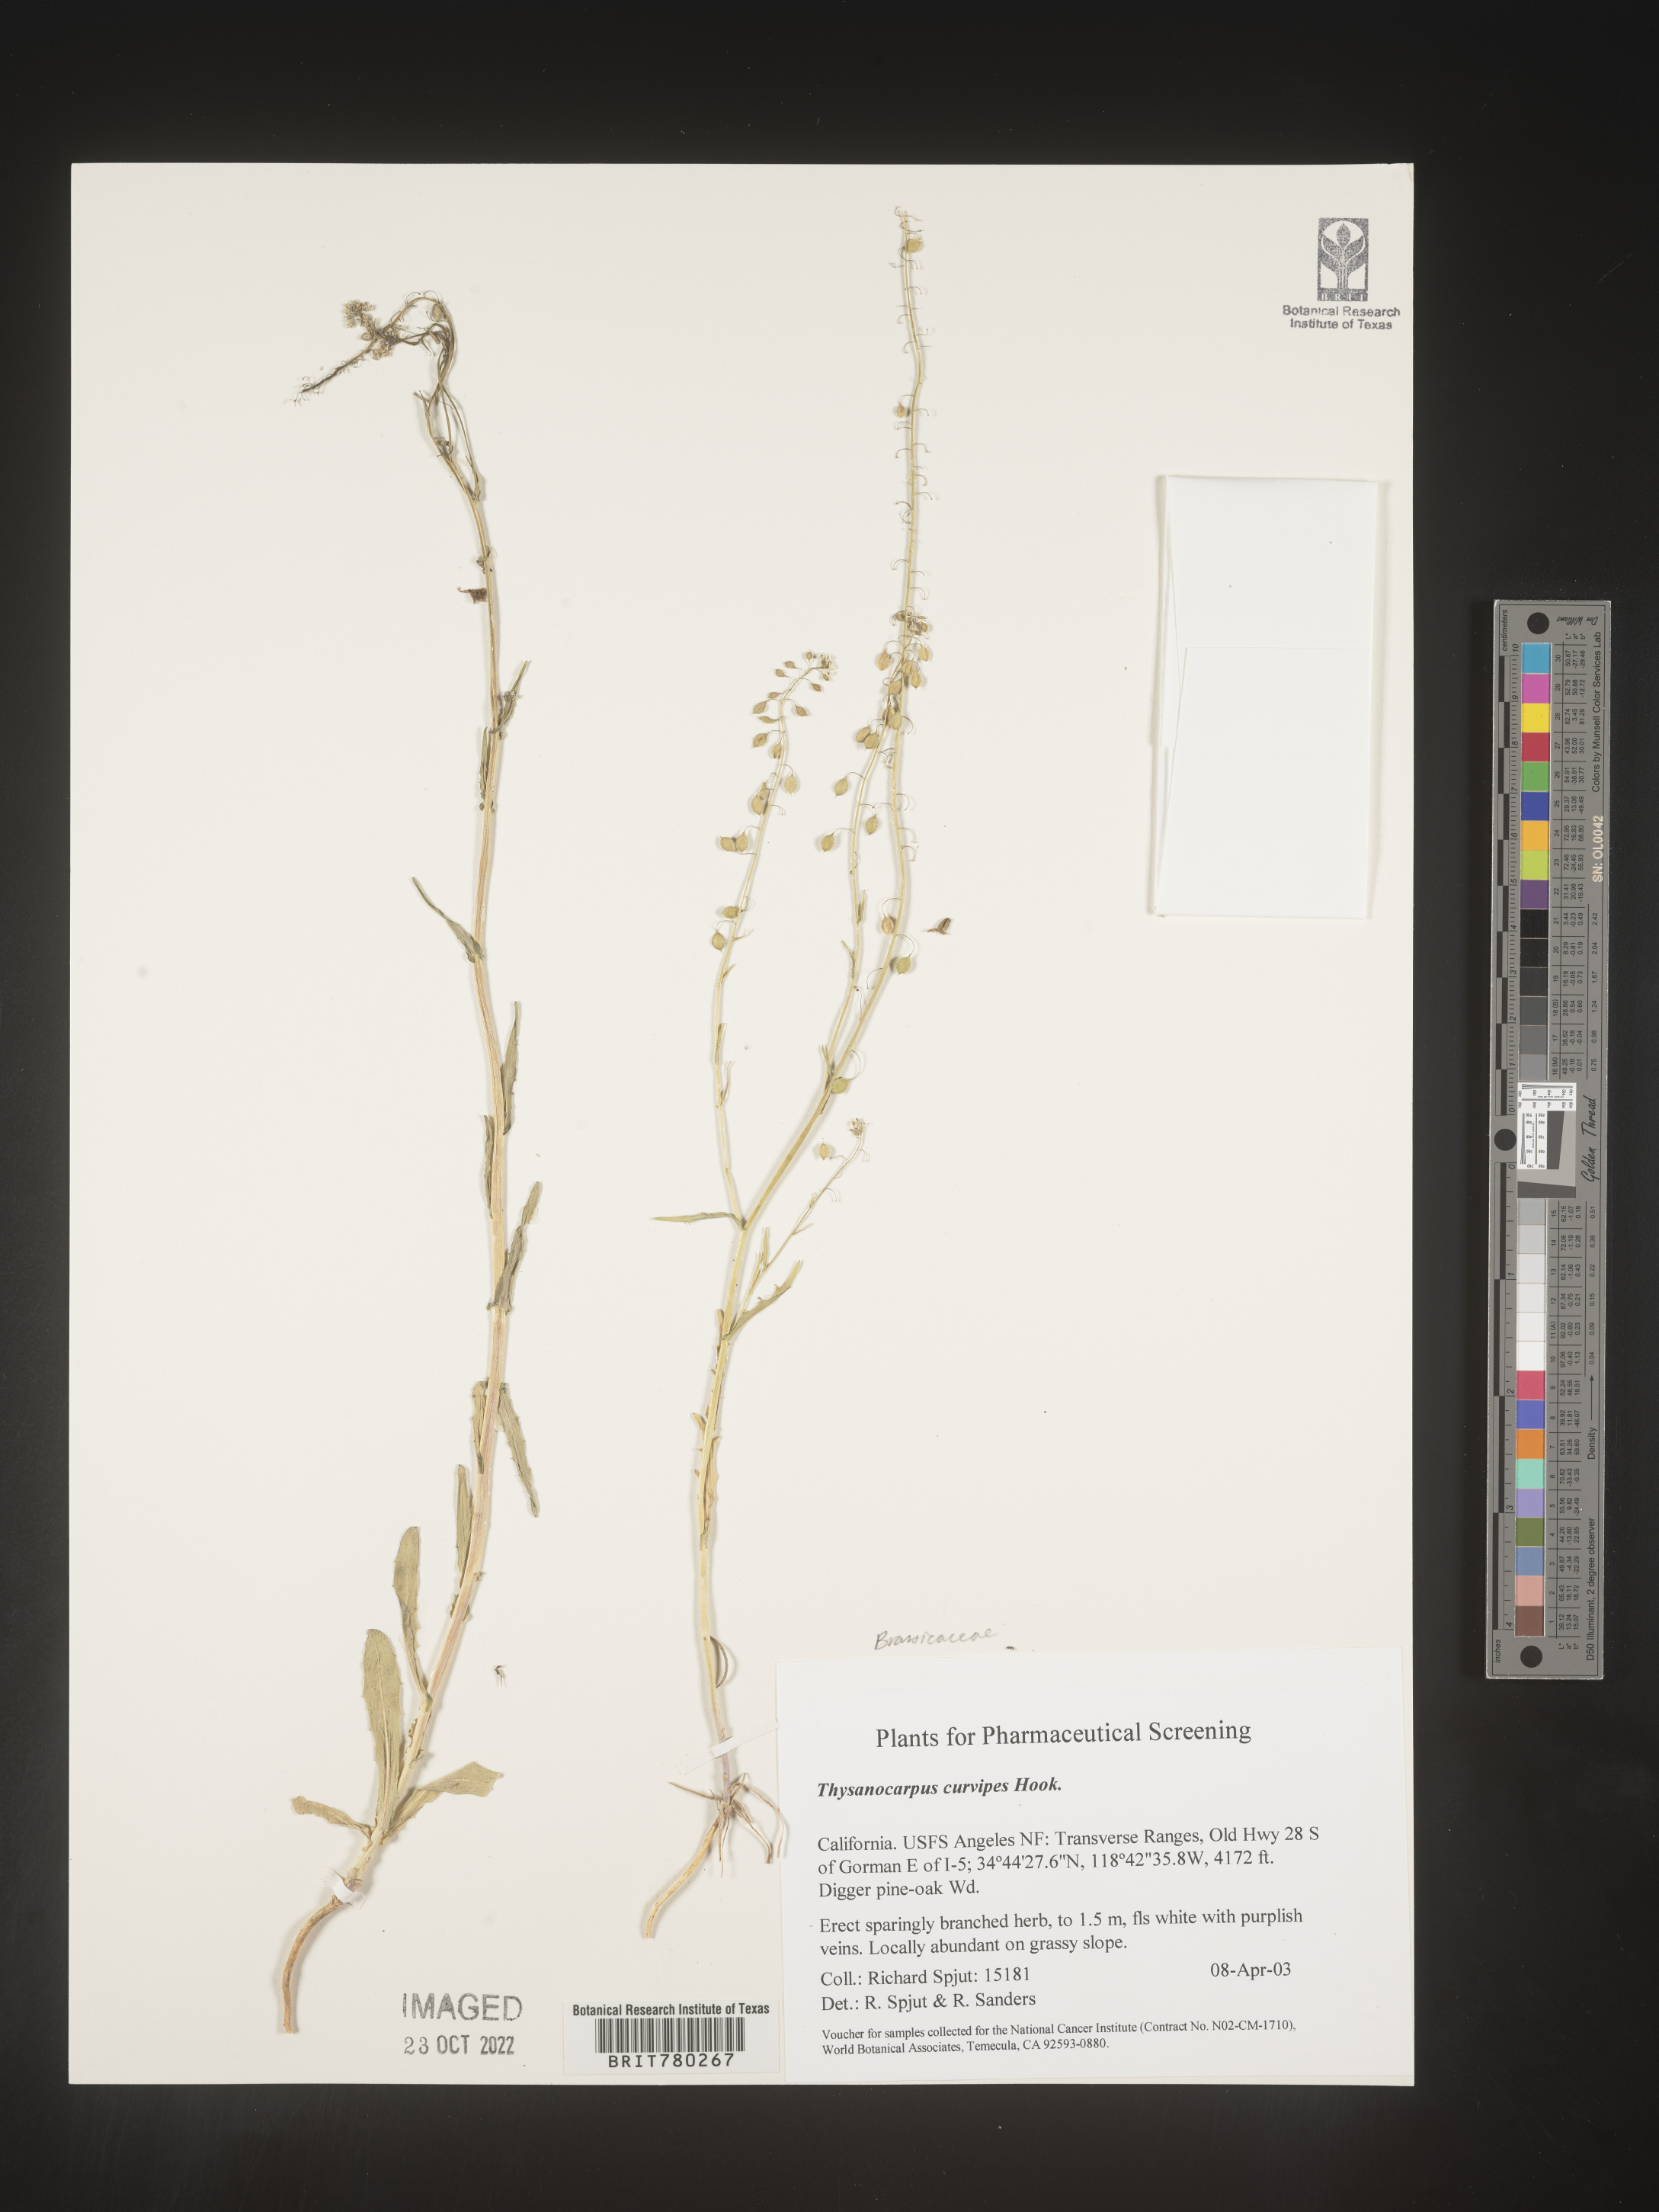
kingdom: Plantae
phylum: Tracheophyta
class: Magnoliopsida
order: Brassicales
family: Brassicaceae
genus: Thysanocarpus
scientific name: Thysanocarpus
